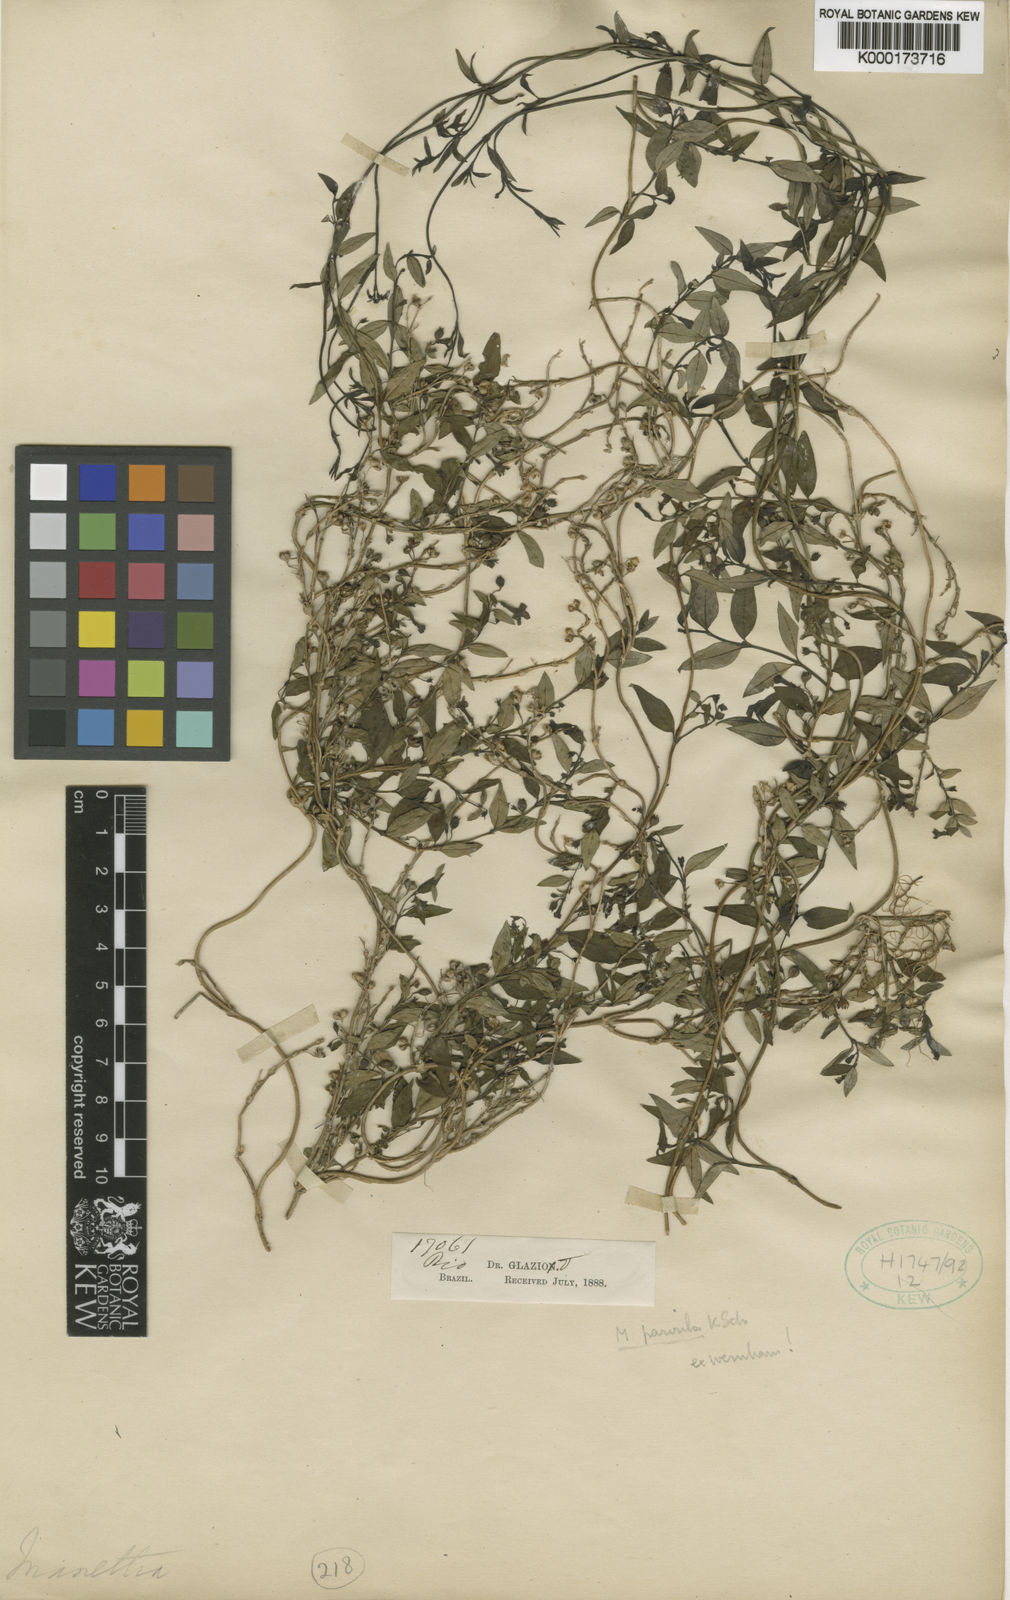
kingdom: Plantae
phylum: Tracheophyta
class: Magnoliopsida
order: Gentianales
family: Rubiaceae
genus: Manettia
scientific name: Manettia parvula
